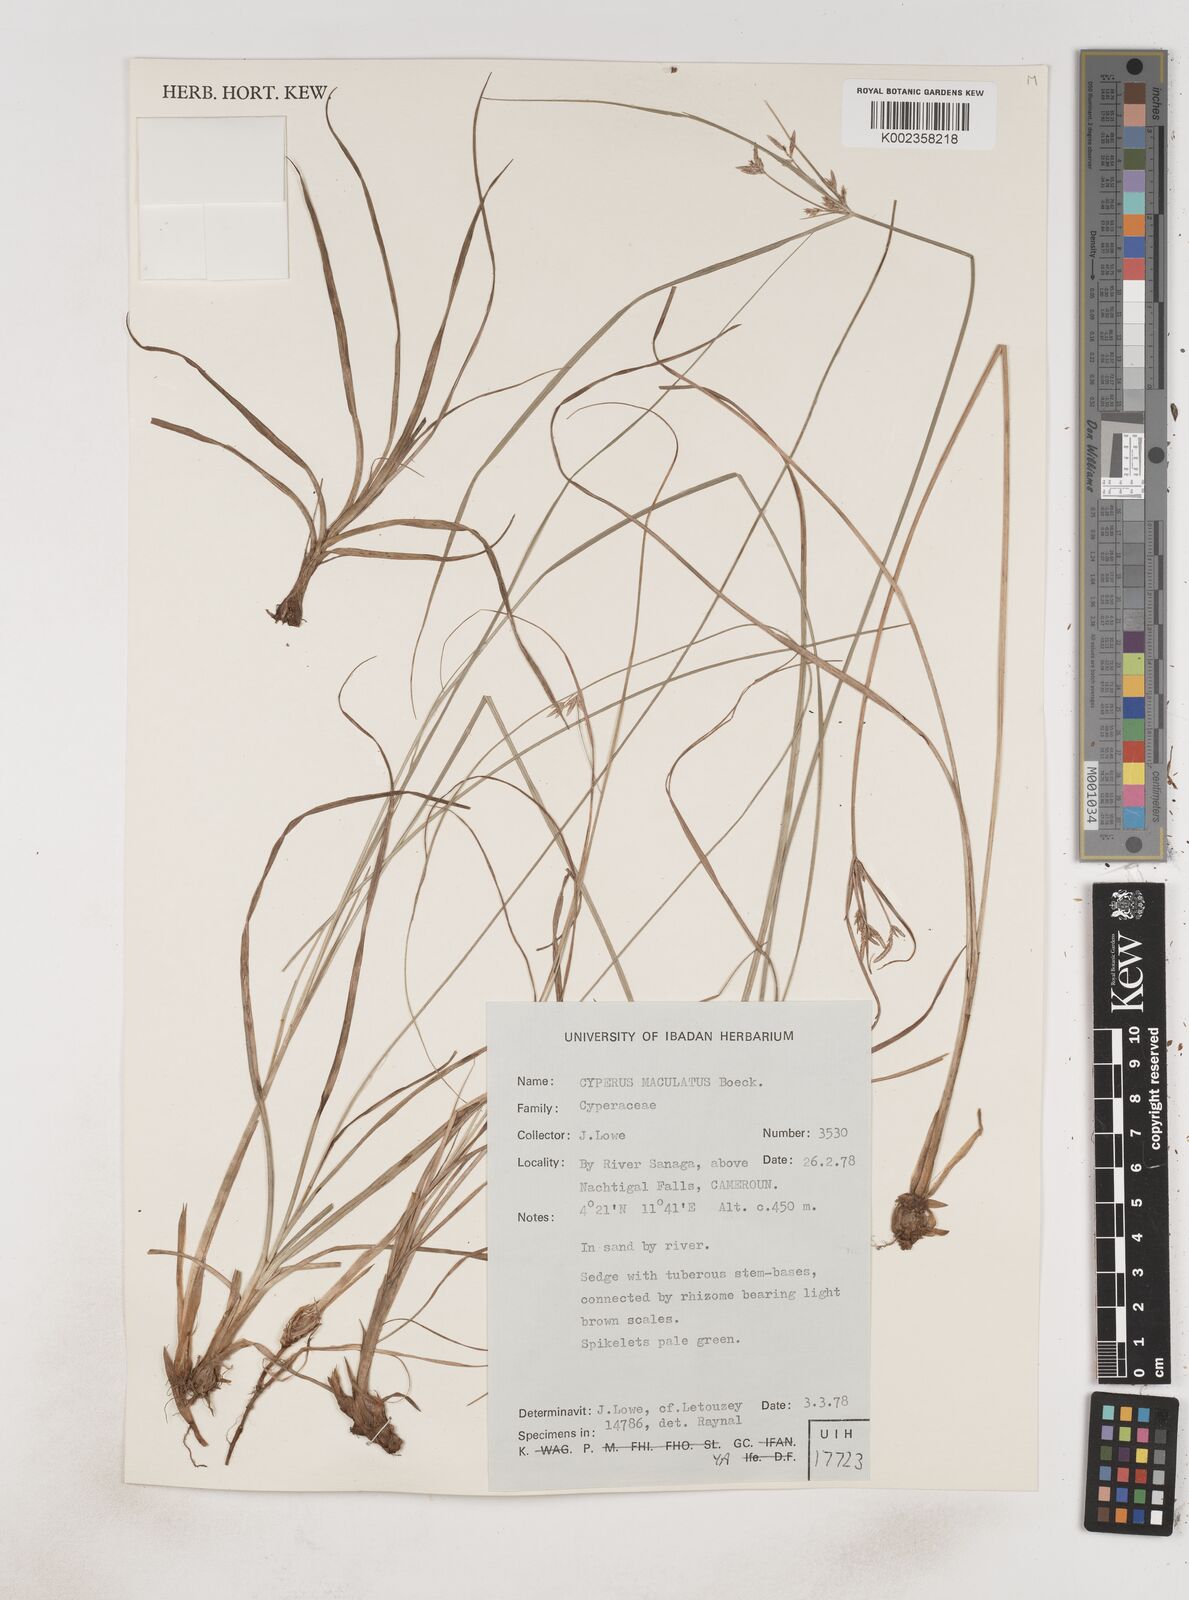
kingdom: Plantae
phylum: Tracheophyta
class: Liliopsida
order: Poales
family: Cyperaceae
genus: Cyperus
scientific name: Cyperus maculatus
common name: Maculated sedge
